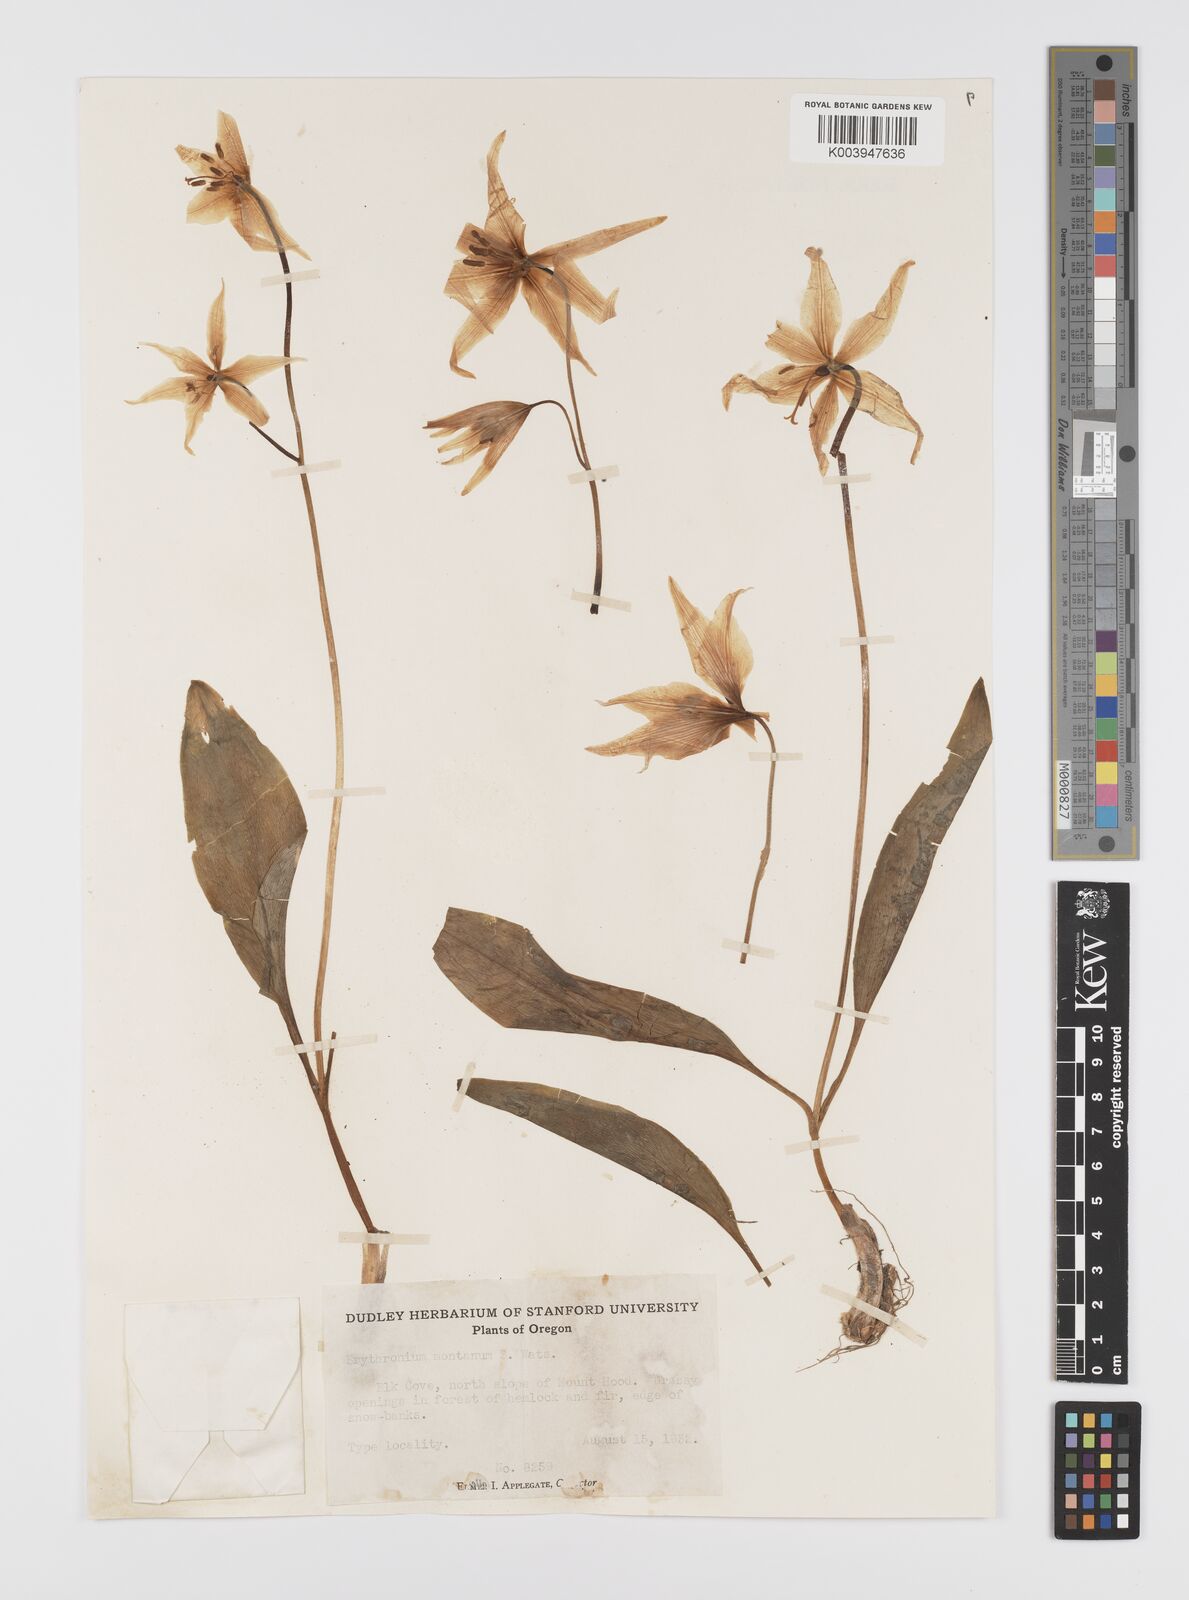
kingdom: Plantae
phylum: Tracheophyta
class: Liliopsida
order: Liliales
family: Liliaceae
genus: Erythronium
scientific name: Erythronium montanum
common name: Avalanche lily
